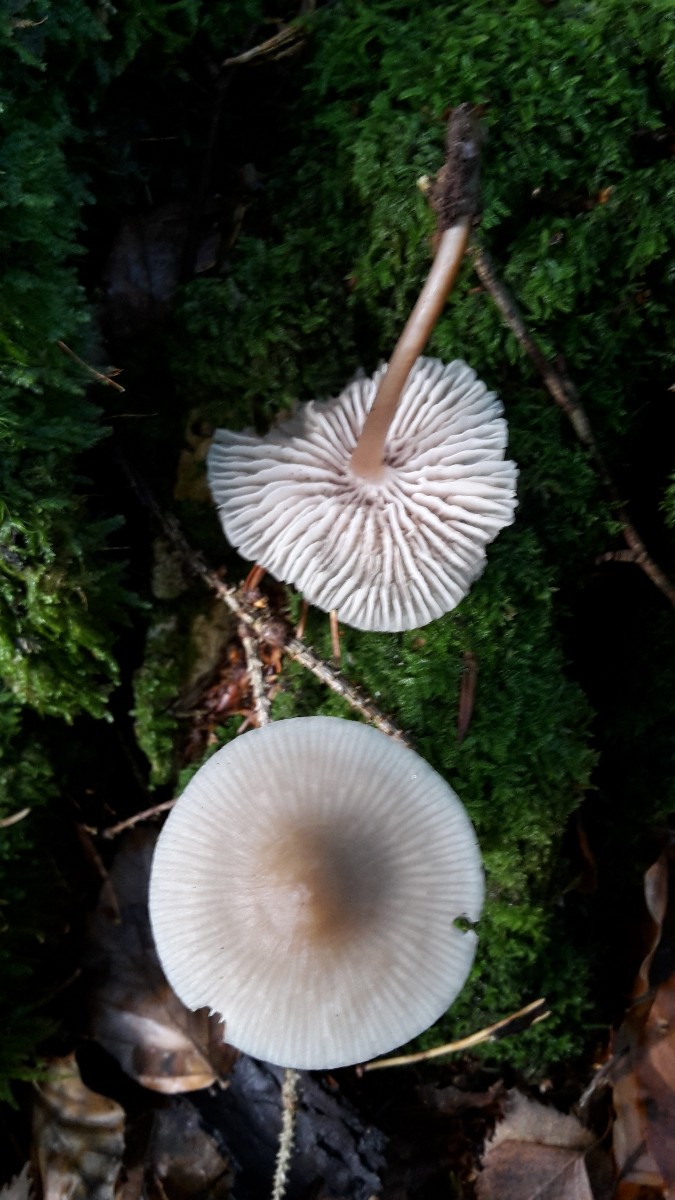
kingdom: Fungi
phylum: Basidiomycota
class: Agaricomycetes
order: Agaricales
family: Mycenaceae
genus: Mycena
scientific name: Mycena galericulata
